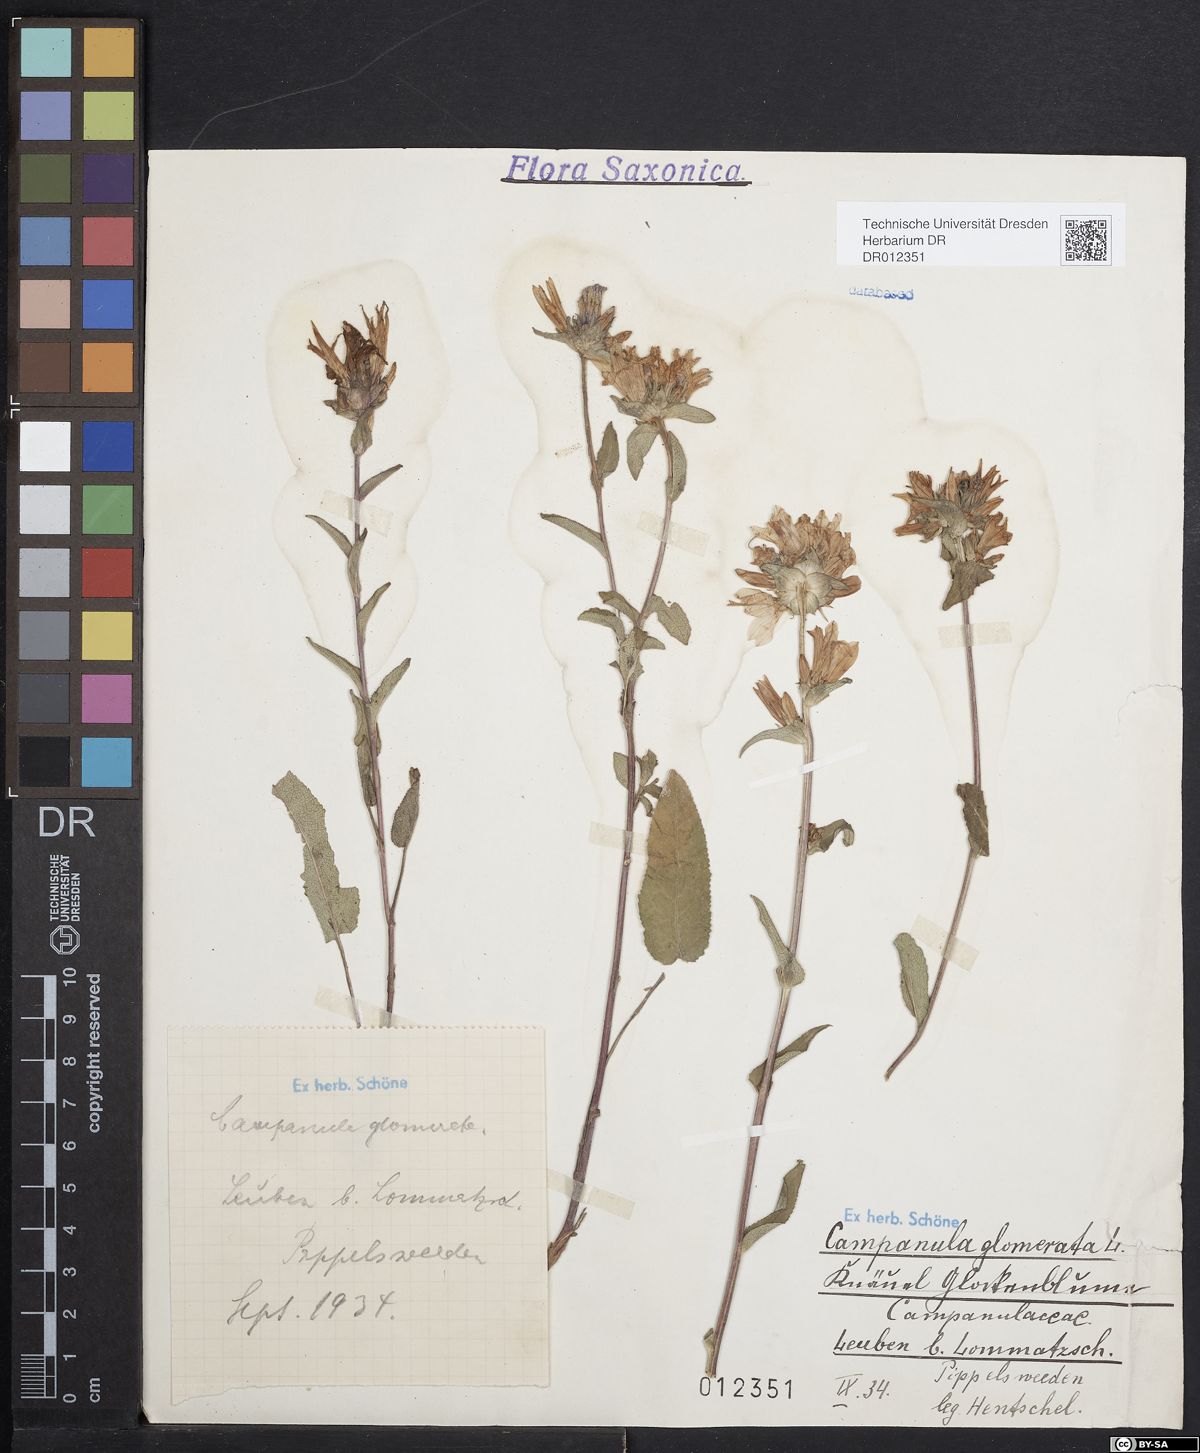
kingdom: Plantae
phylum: Tracheophyta
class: Magnoliopsida
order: Asterales
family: Campanulaceae
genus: Campanula
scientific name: Campanula glomerata
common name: Clustered bellflower
